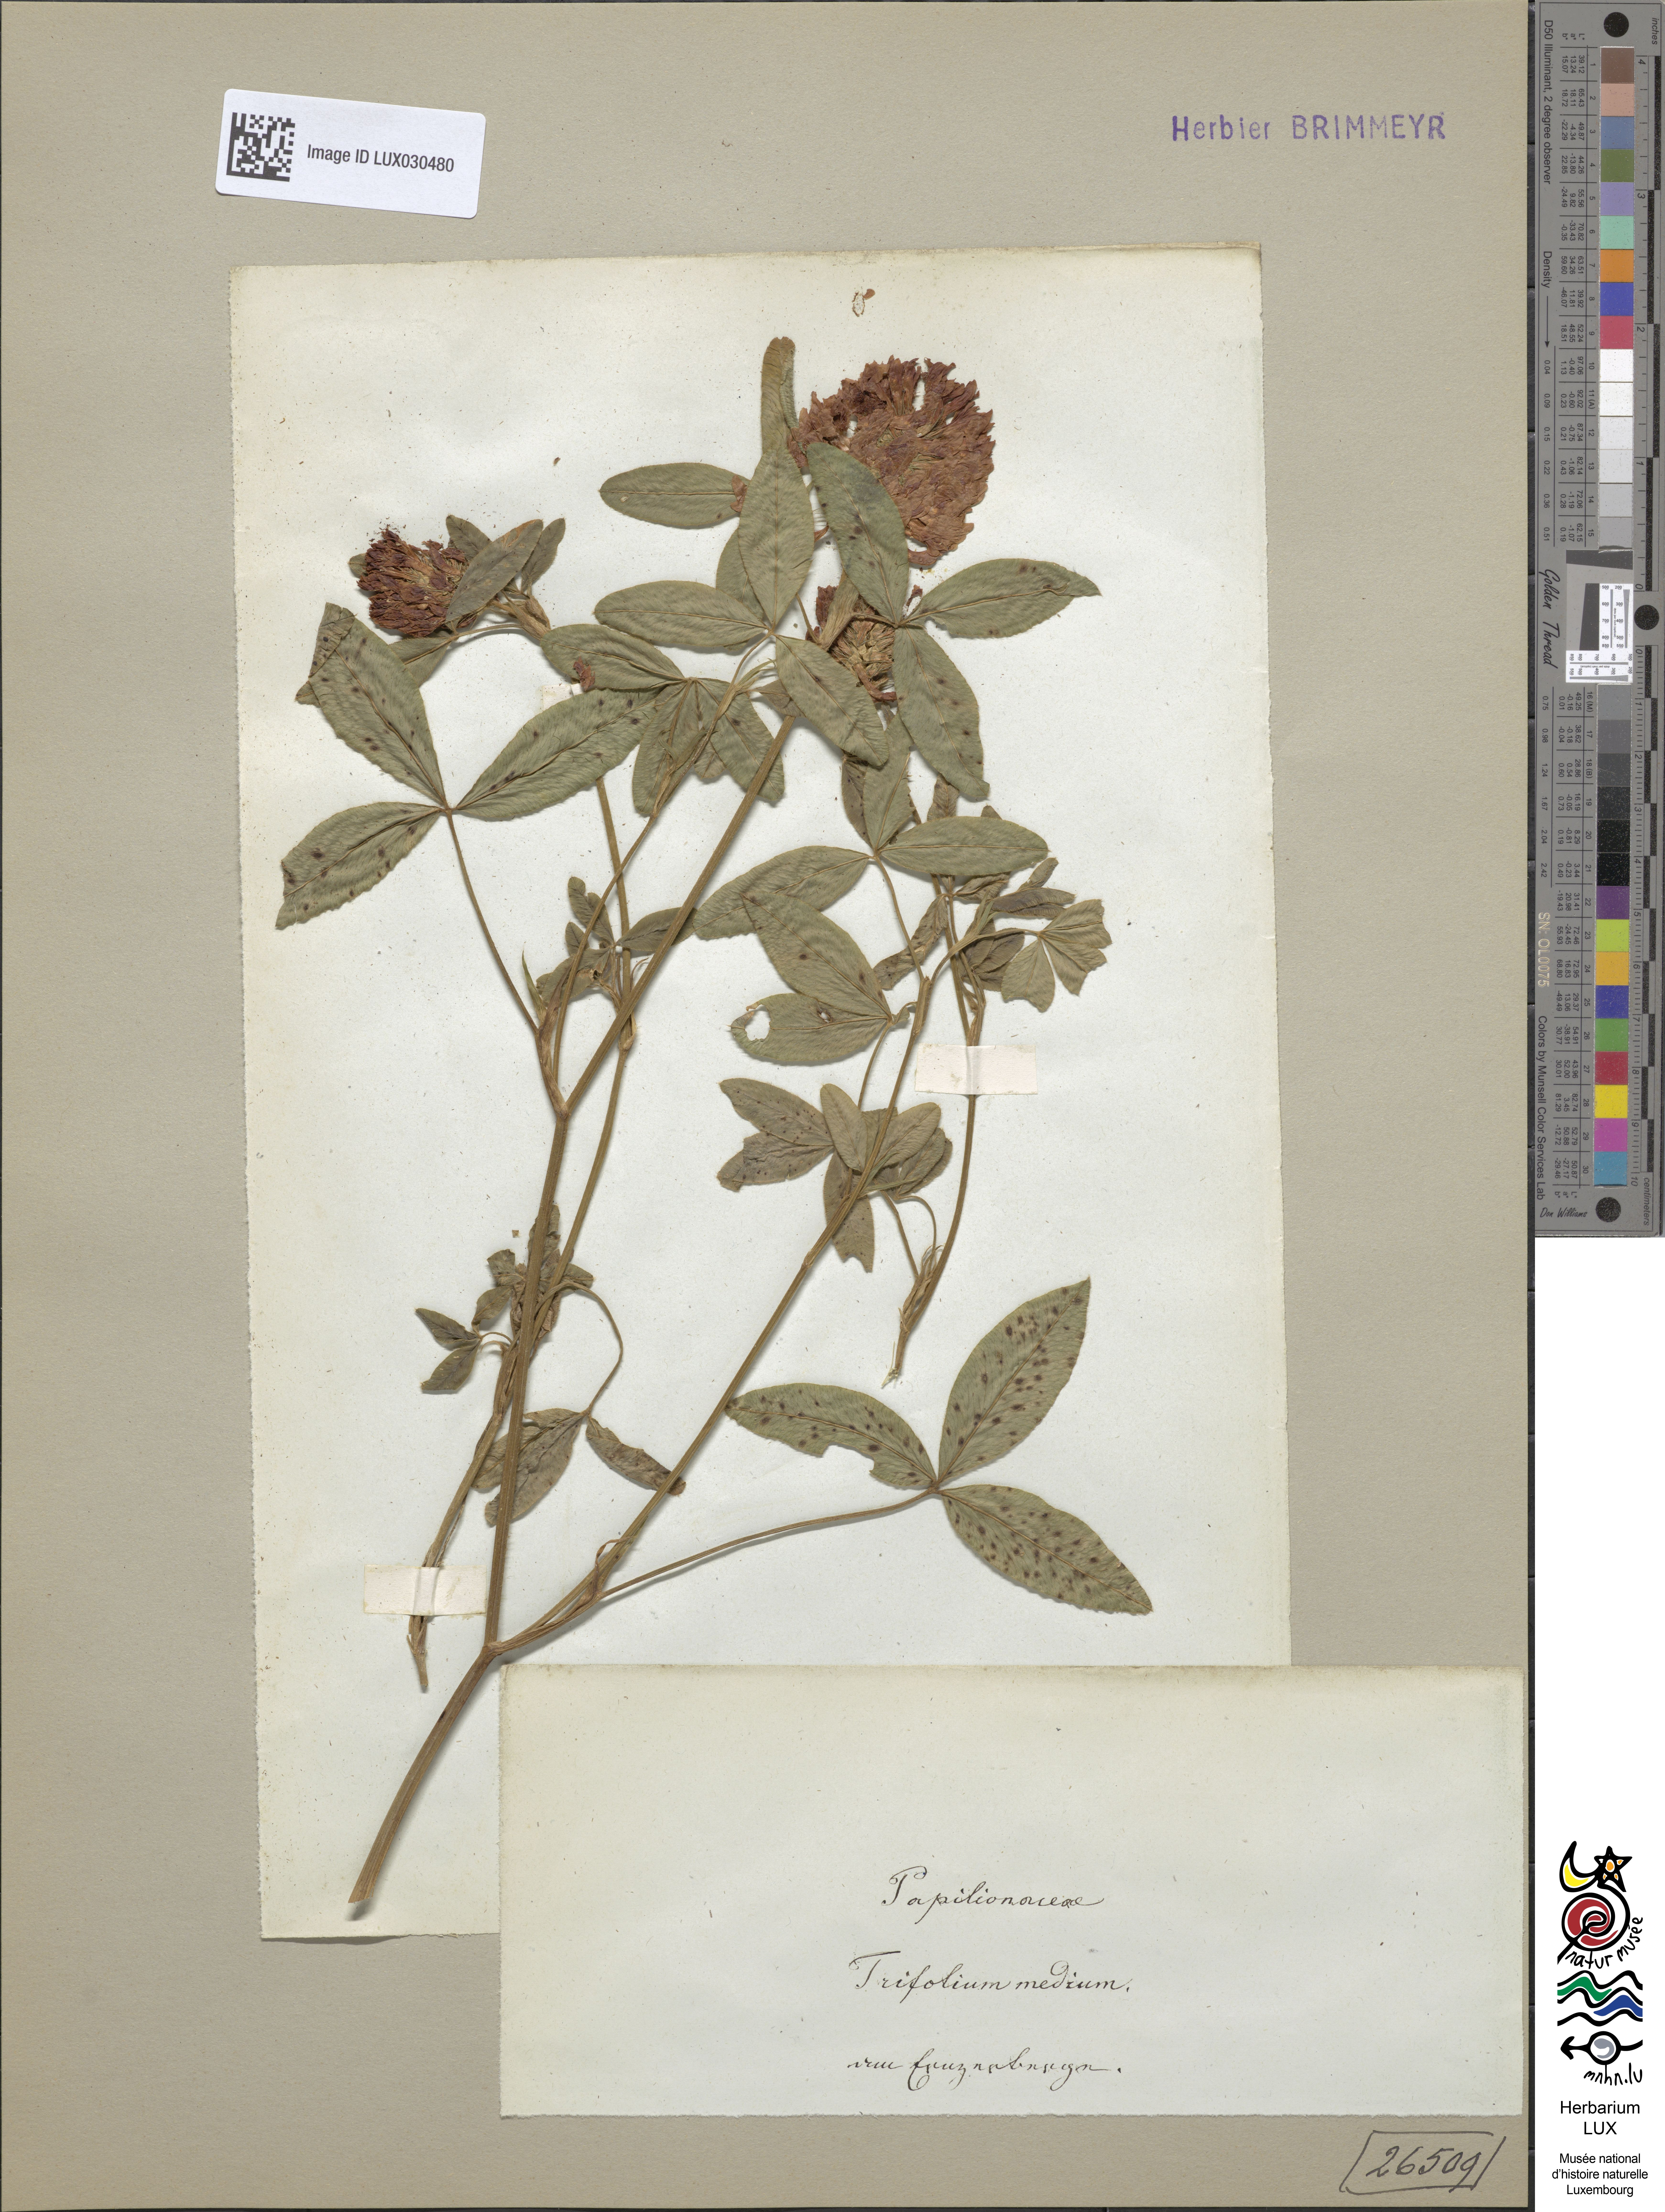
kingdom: Plantae
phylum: Tracheophyta
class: Magnoliopsida
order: Fabales
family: Fabaceae
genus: Trifolium
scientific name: Trifolium medium
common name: Zigzag clover
